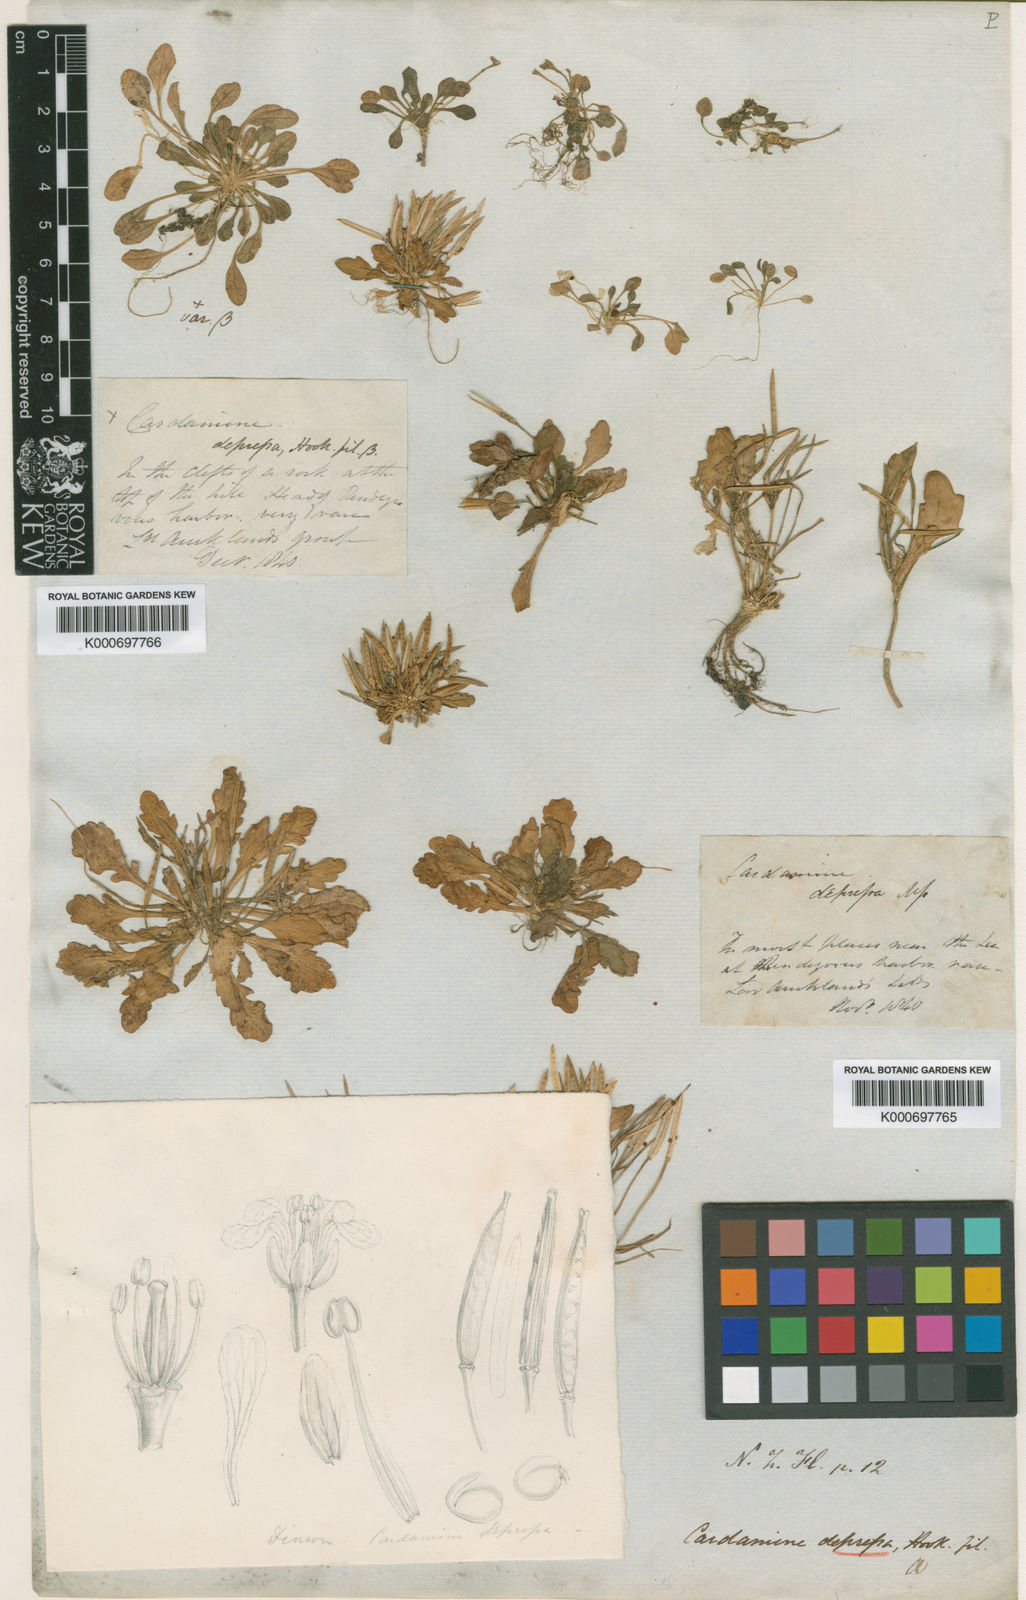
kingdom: Plantae
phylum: Tracheophyta
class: Magnoliopsida
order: Brassicales
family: Brassicaceae
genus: Cardamine
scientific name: Cardamine depressa
